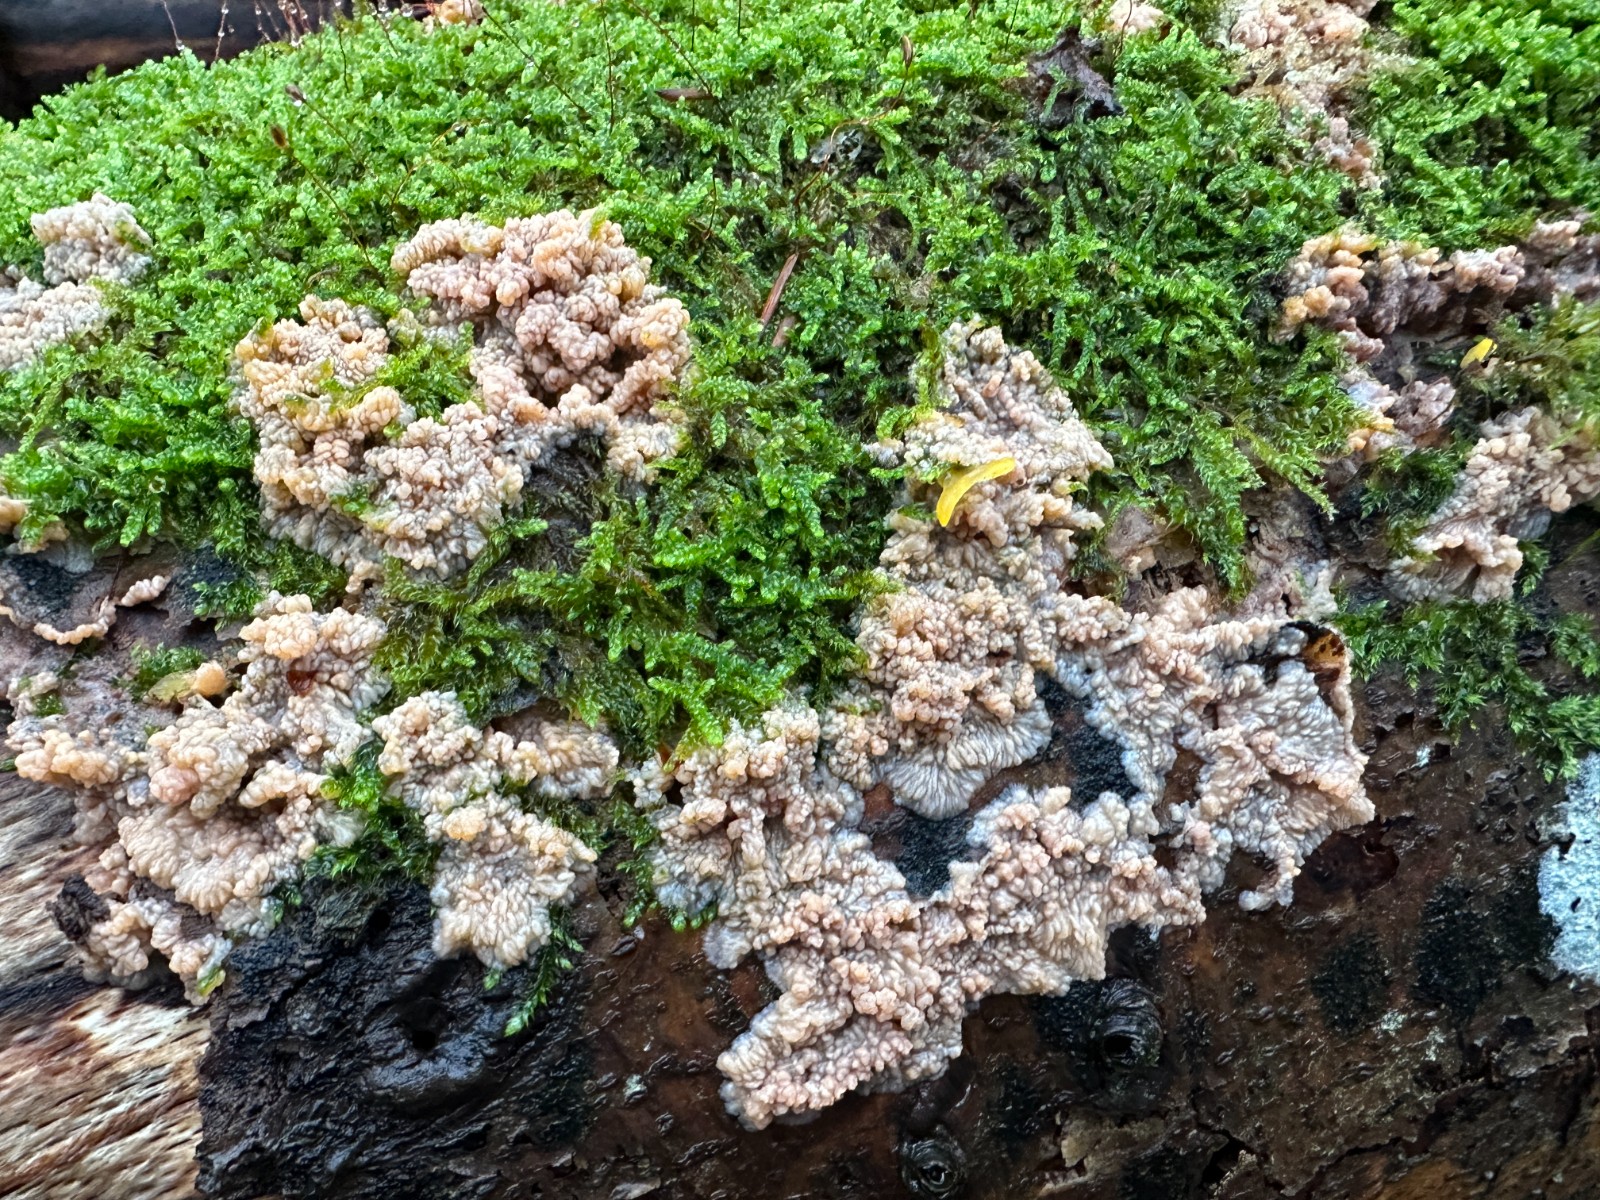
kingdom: Fungi
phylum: Basidiomycota
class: Agaricomycetes
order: Polyporales
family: Meruliaceae
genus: Phlebia
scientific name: Phlebia radiata
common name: stråle-åresvamp
